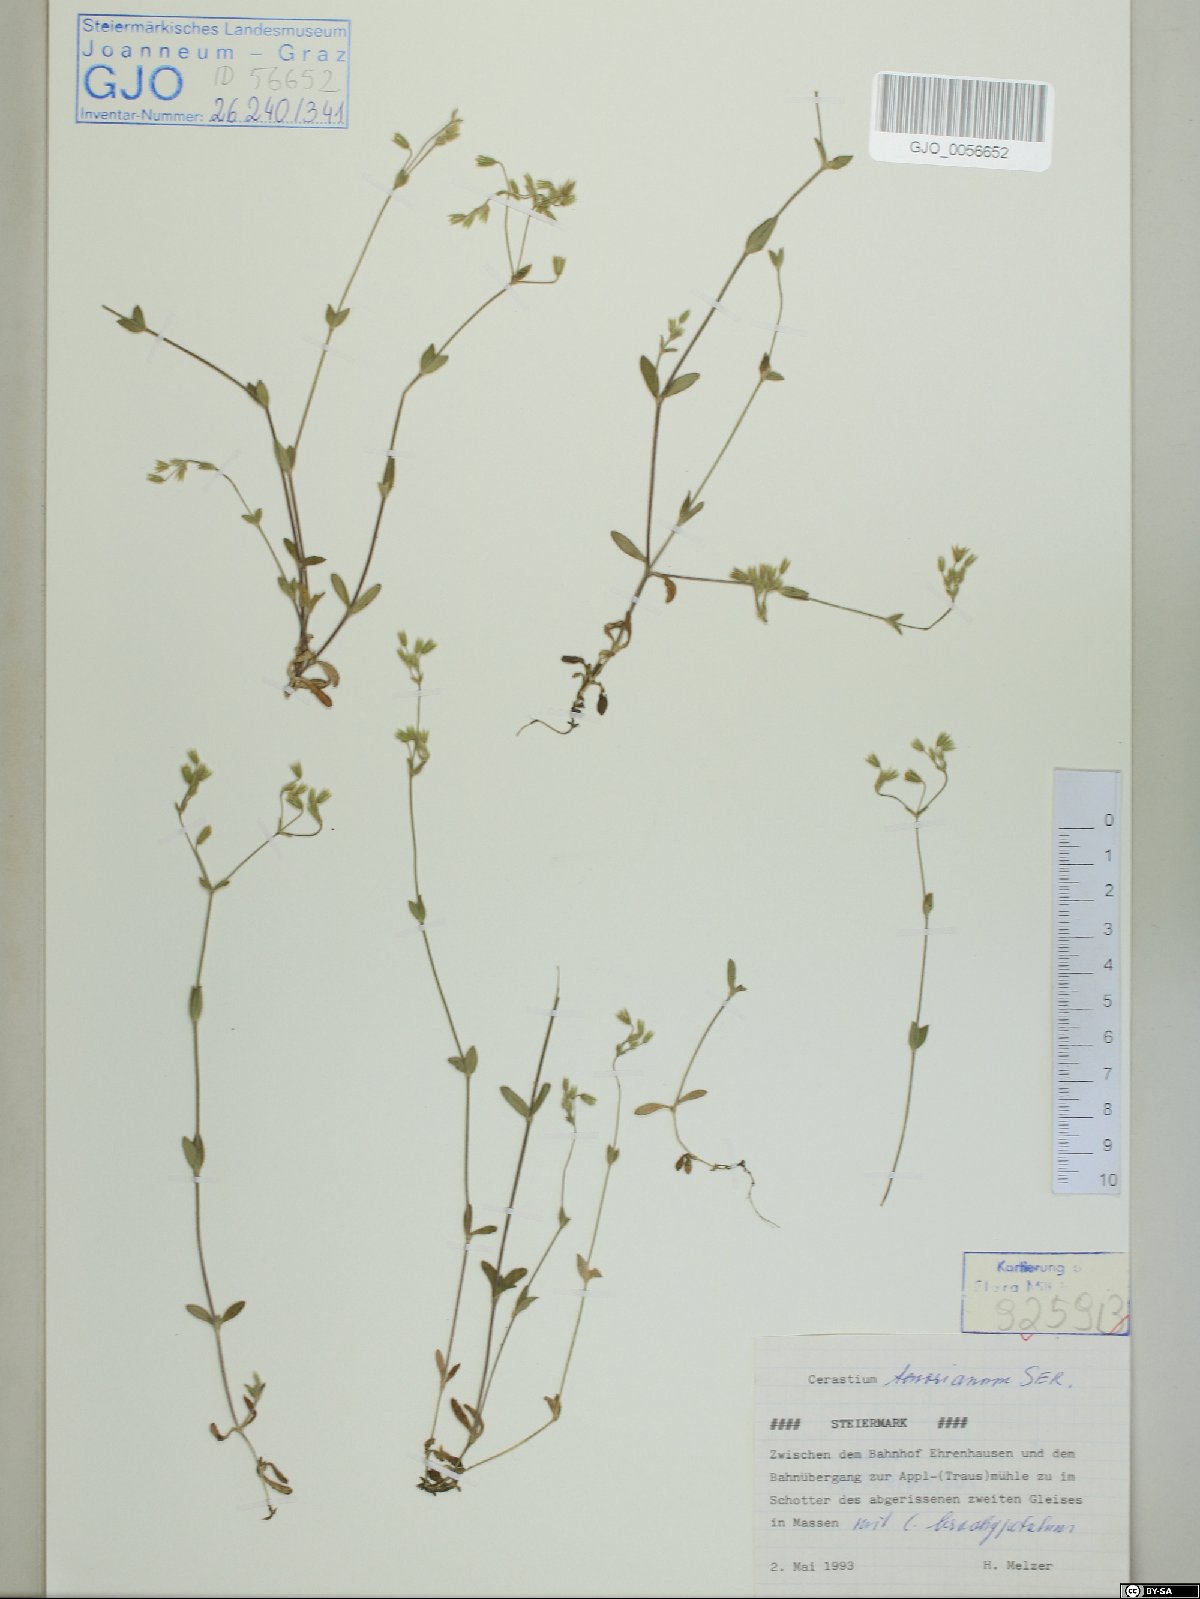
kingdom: Plantae
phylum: Tracheophyta
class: Magnoliopsida
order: Caryophyllales
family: Caryophyllaceae
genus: Cerastium
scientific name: Cerastium tenoreanum
